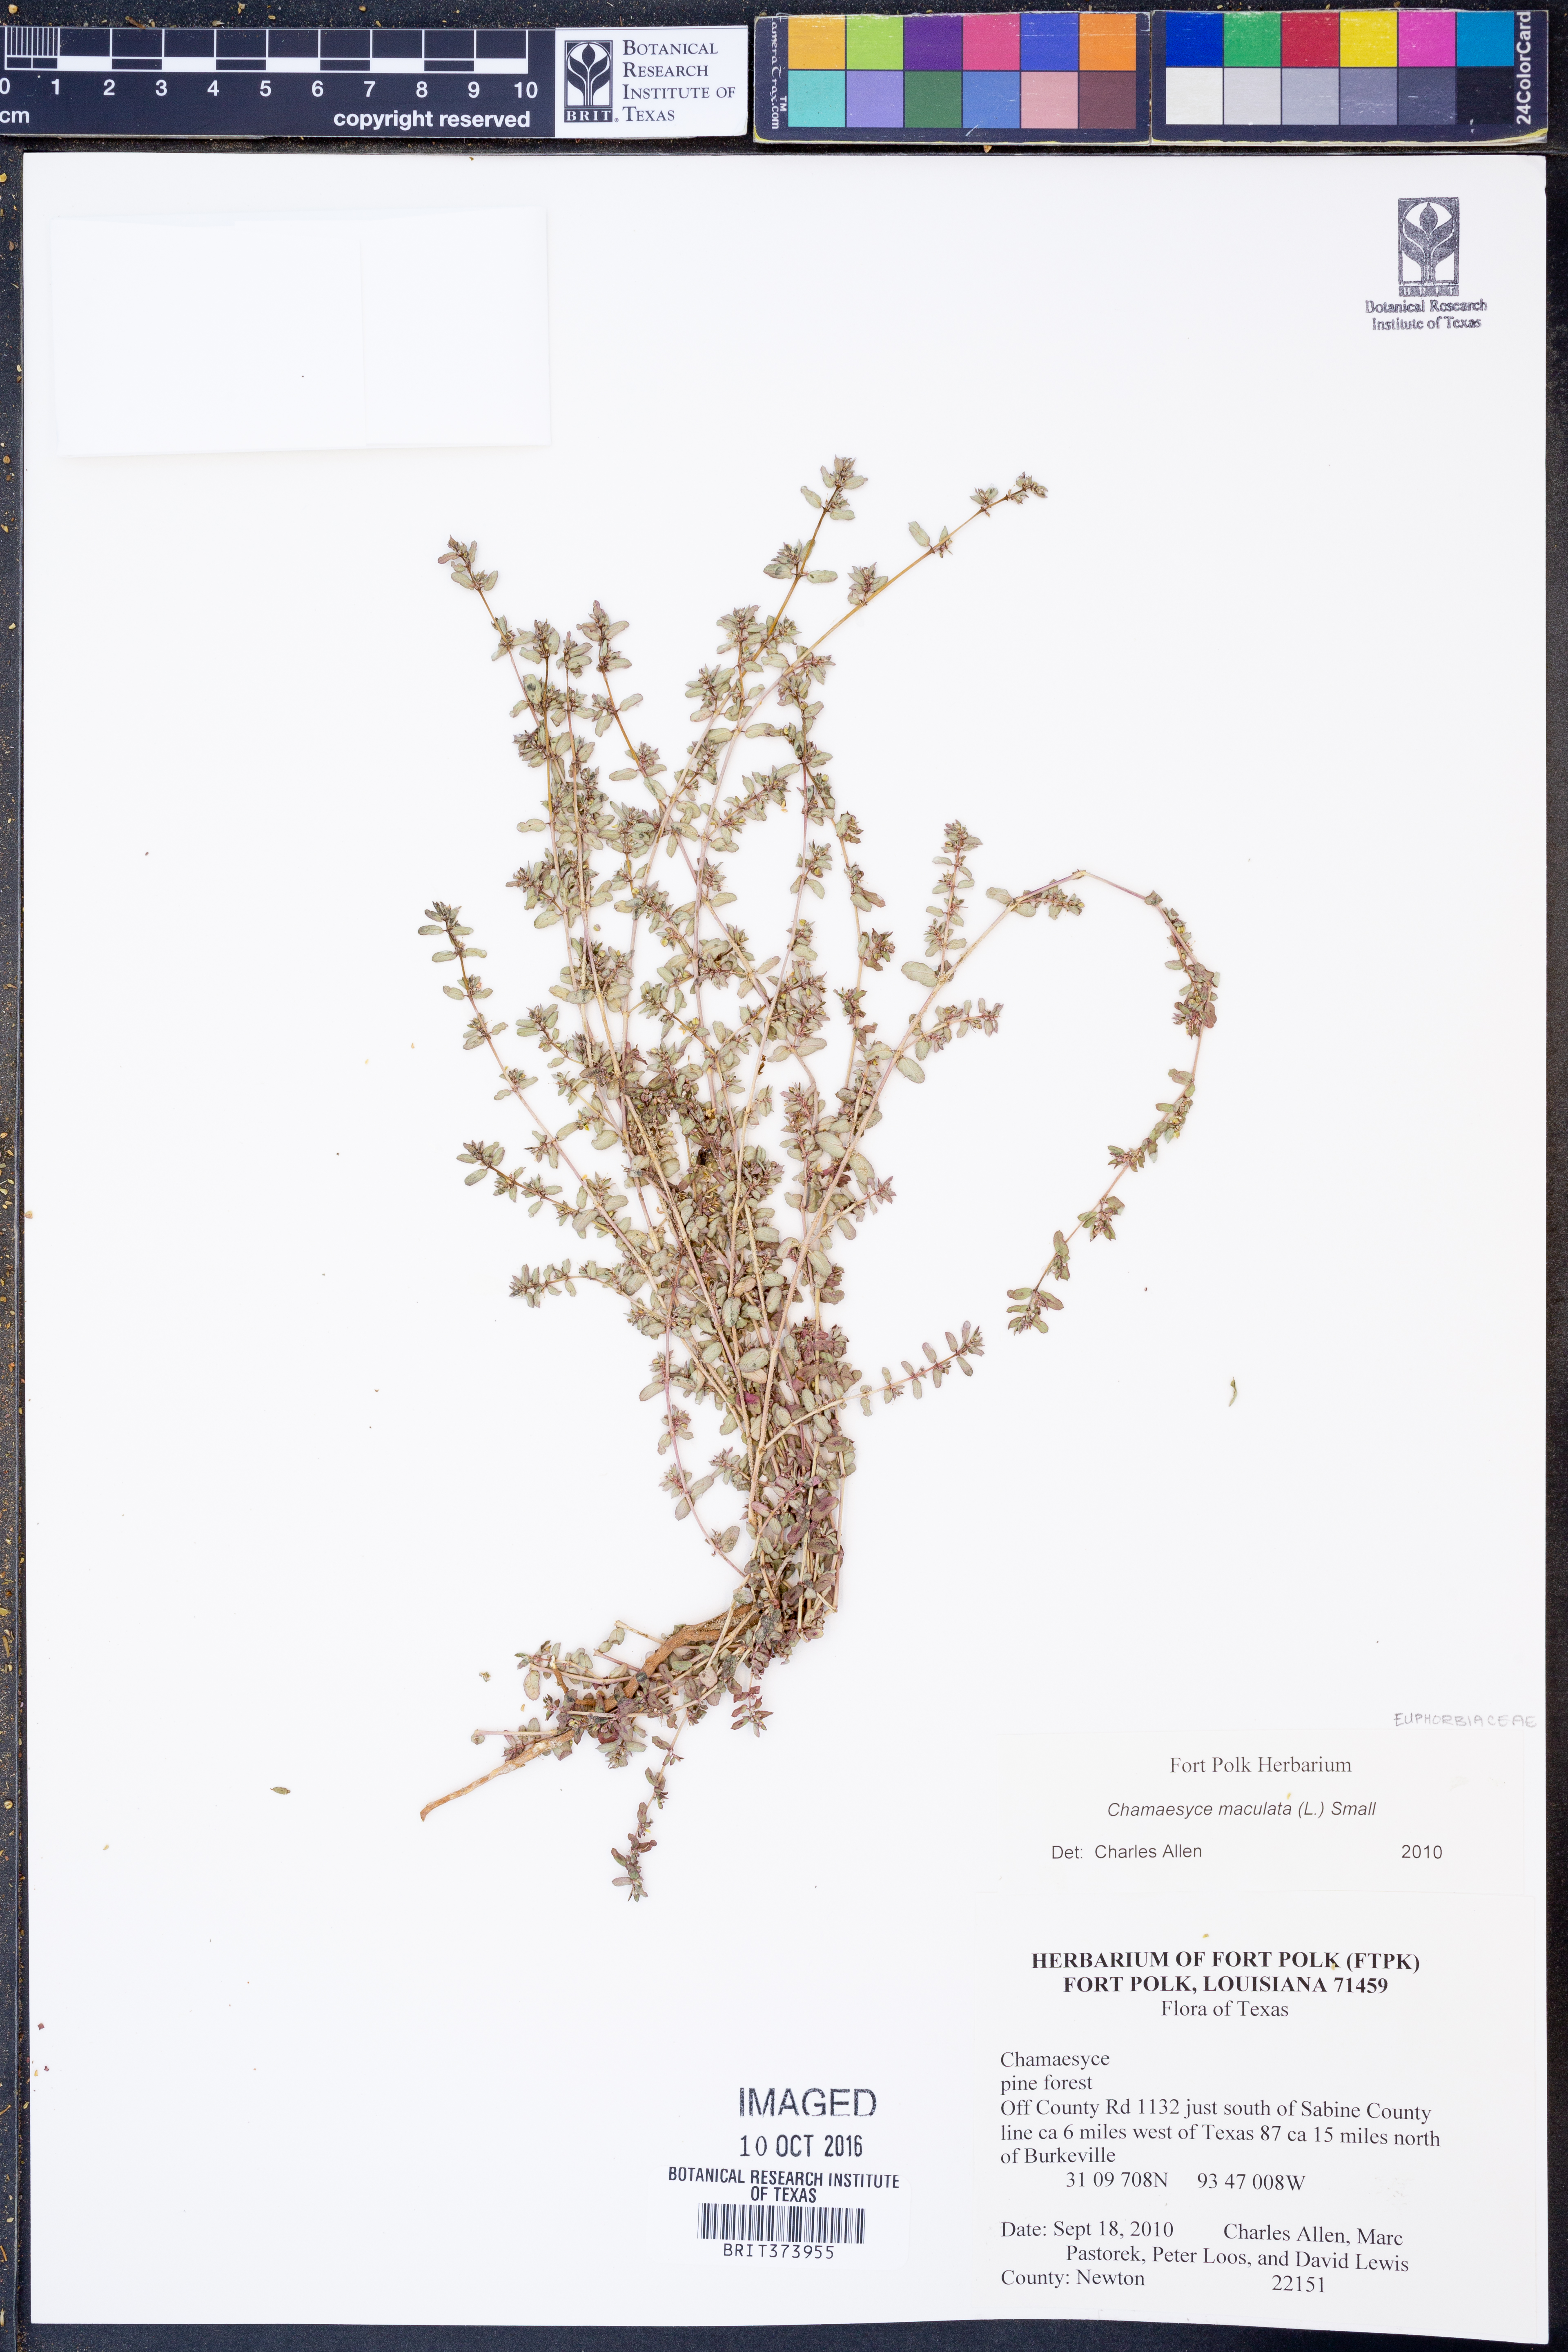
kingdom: Plantae
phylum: Tracheophyta
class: Magnoliopsida
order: Malpighiales
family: Euphorbiaceae
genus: Euphorbia
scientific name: Euphorbia maculata
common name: Spotted spurge
